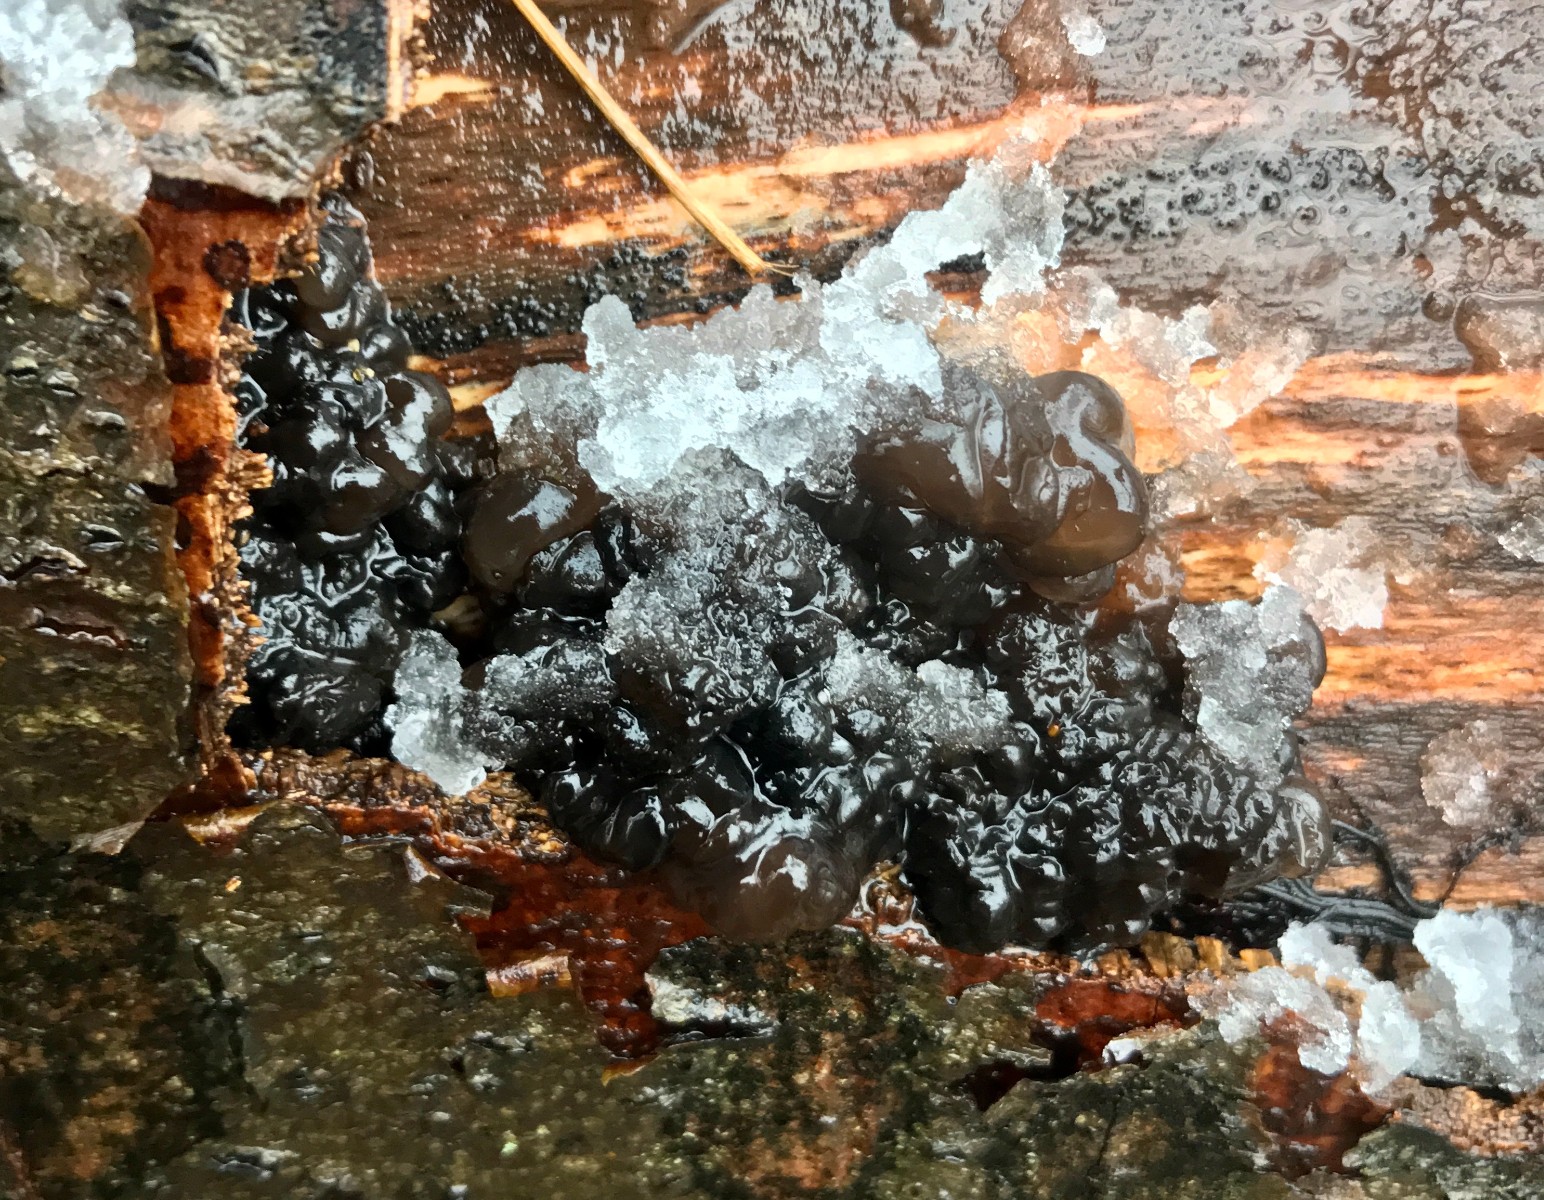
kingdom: Fungi
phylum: Basidiomycota
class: Agaricomycetes
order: Auriculariales
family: Auriculariaceae
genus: Exidia
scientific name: Exidia nigricans
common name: almindelig bævretop
